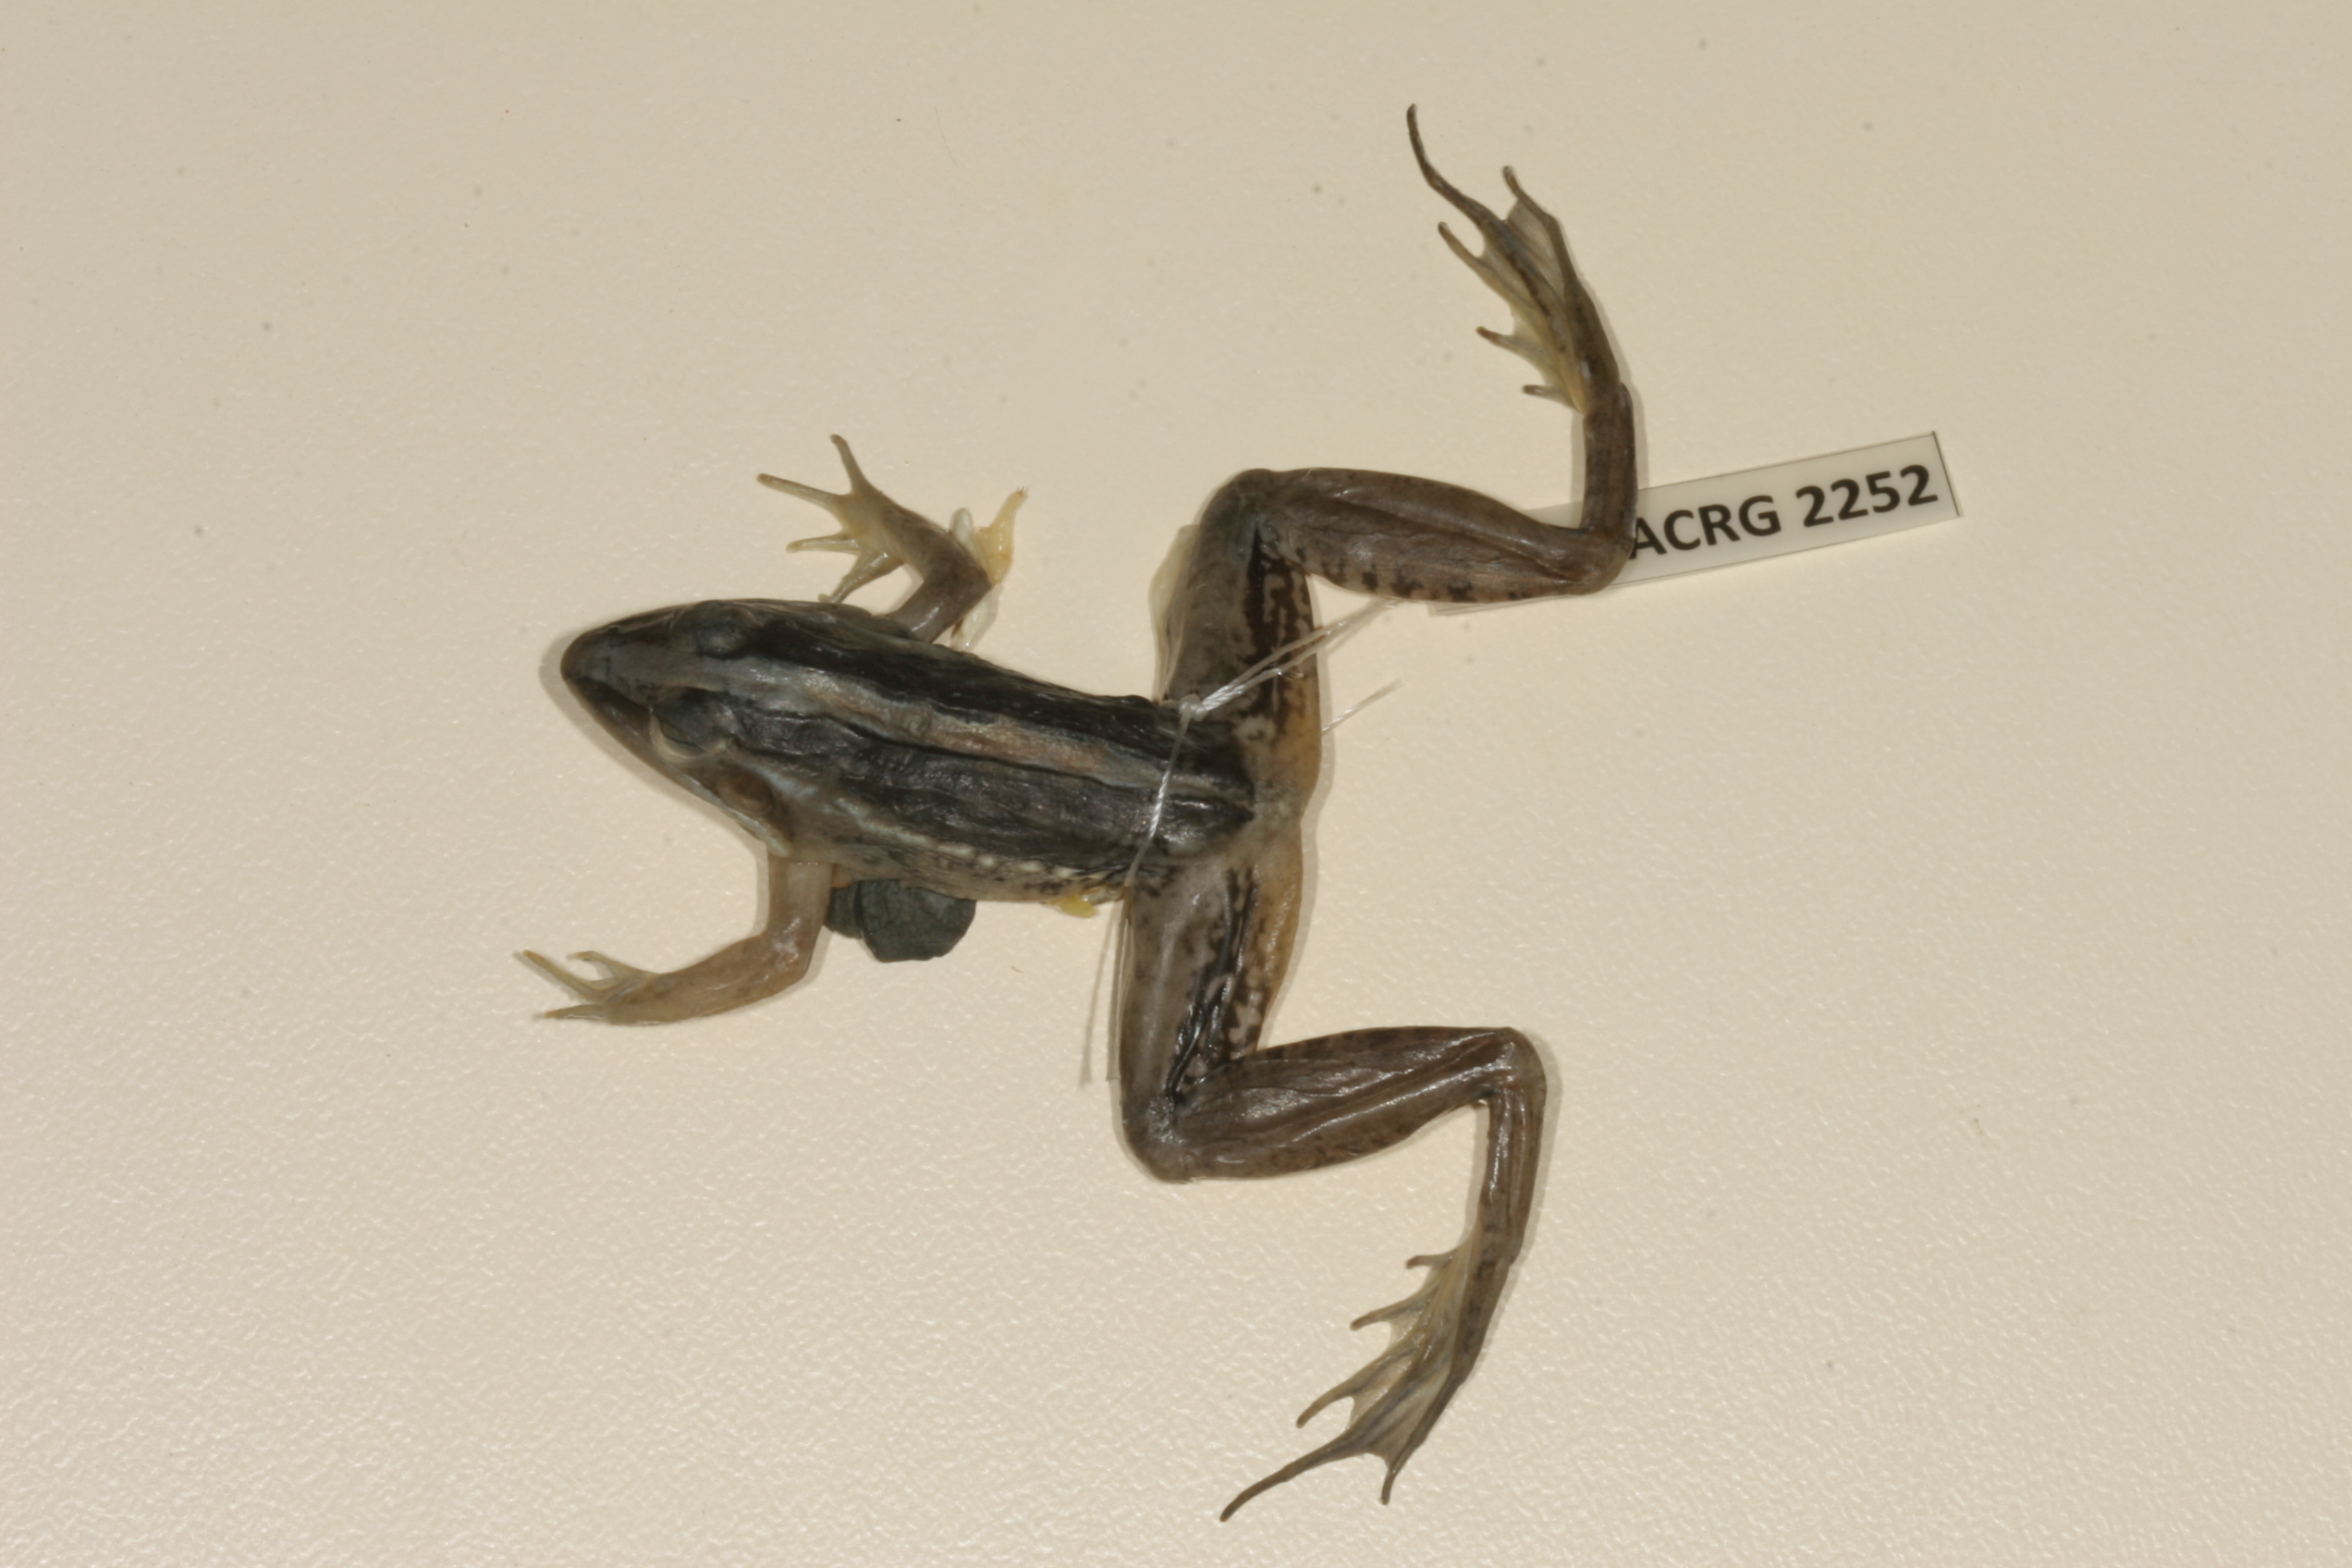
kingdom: Animalia
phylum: Chordata
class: Amphibia
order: Anura
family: Ptychadenidae
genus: Ptychadena
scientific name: Ptychadena mascareniensis
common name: Mascarene grass frog
